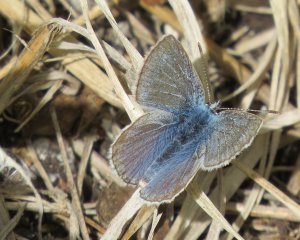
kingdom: Animalia
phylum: Arthropoda
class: Insecta
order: Lepidoptera
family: Lycaenidae
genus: Glaucopsyche
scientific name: Glaucopsyche lygdamus
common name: Silvery Blue
